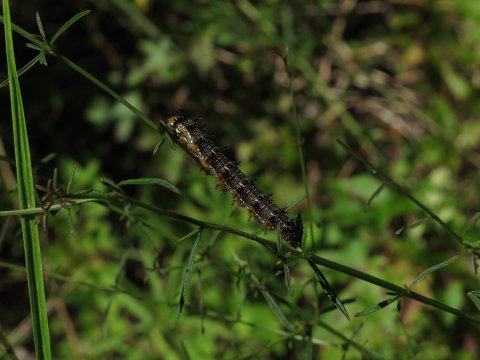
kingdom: Animalia
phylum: Arthropoda
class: Insecta
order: Lepidoptera
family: Nymphalidae
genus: Junonia
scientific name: Junonia coenia
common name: Common Buckeye
